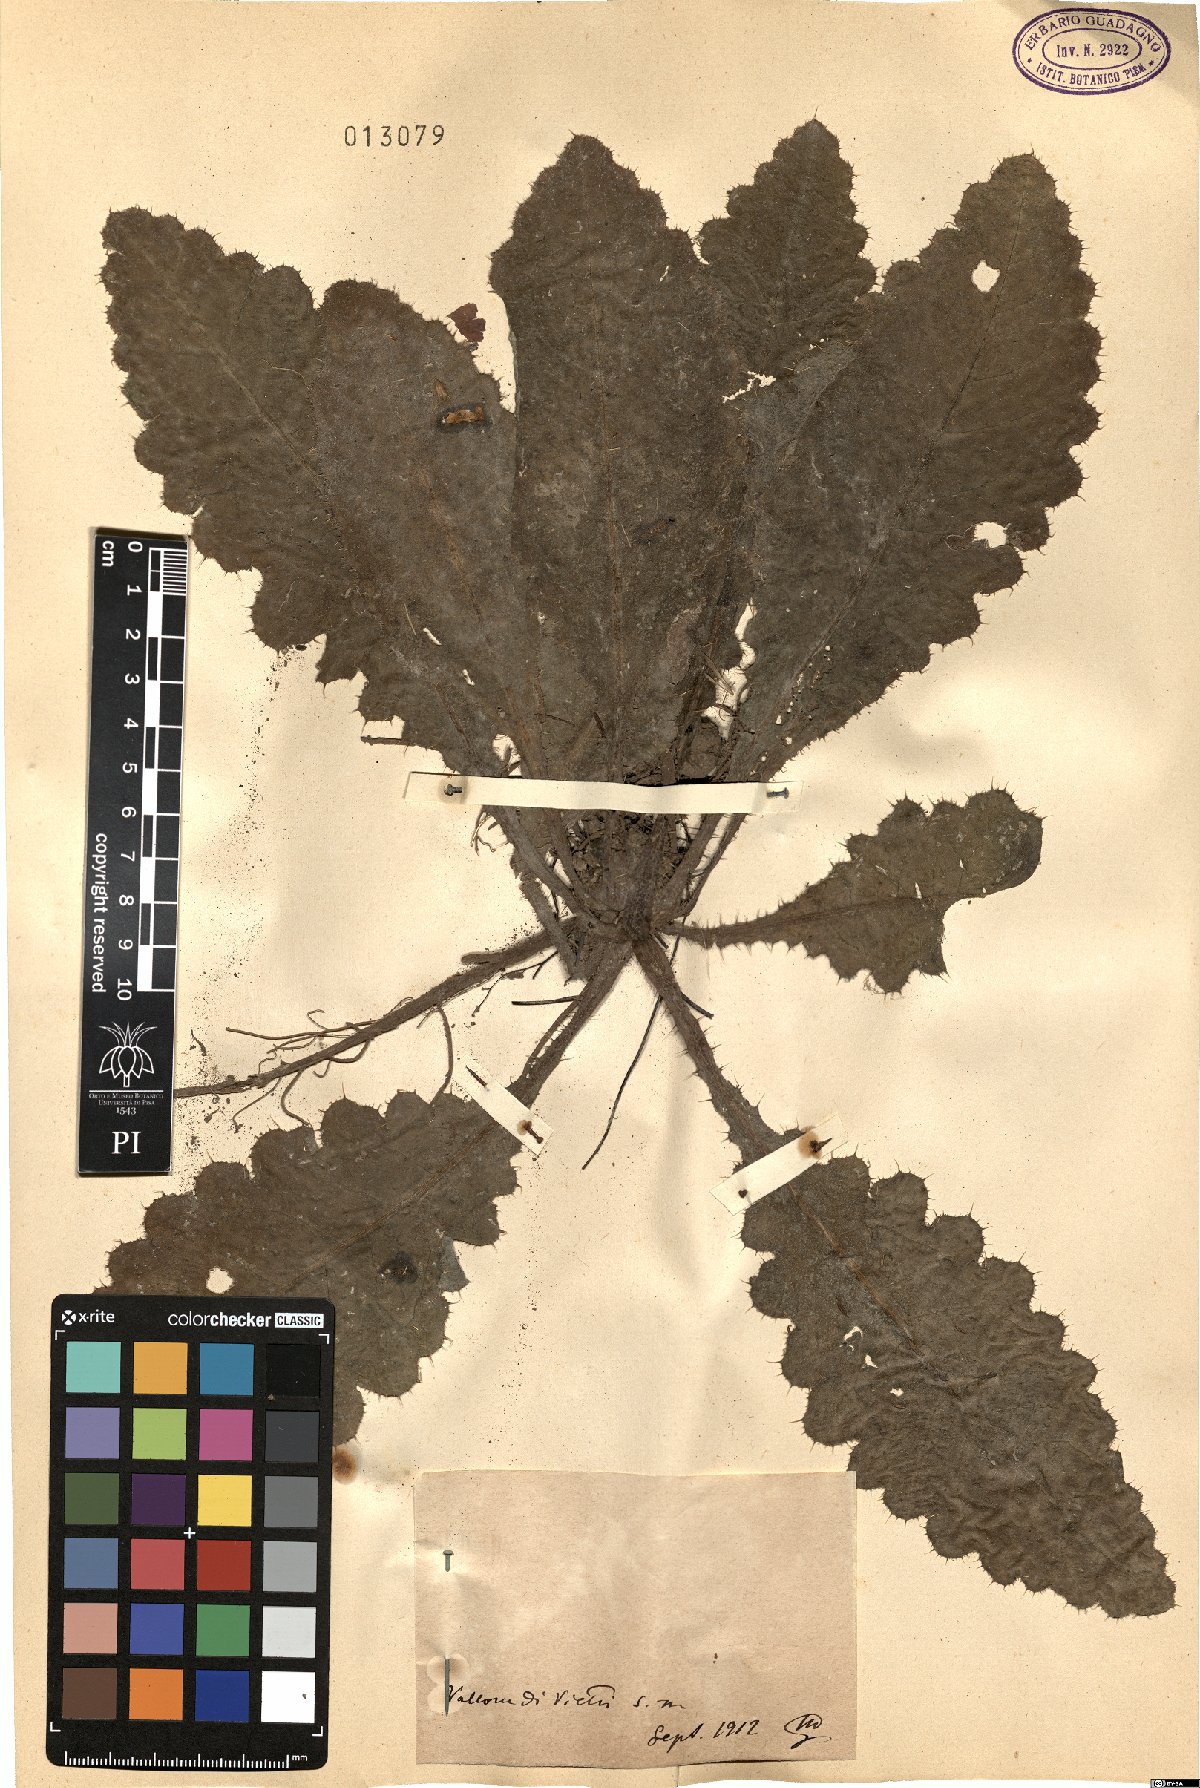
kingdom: Plantae
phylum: Tracheophyta
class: Magnoliopsida
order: Asterales
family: Asteraceae
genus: Cirsium
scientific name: Cirsium
